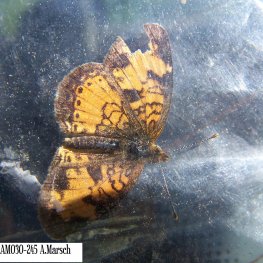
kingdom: Animalia
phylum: Arthropoda
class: Insecta
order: Lepidoptera
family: Nymphalidae
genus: Phyciodes
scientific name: Phyciodes tharos
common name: Northern Crescent
